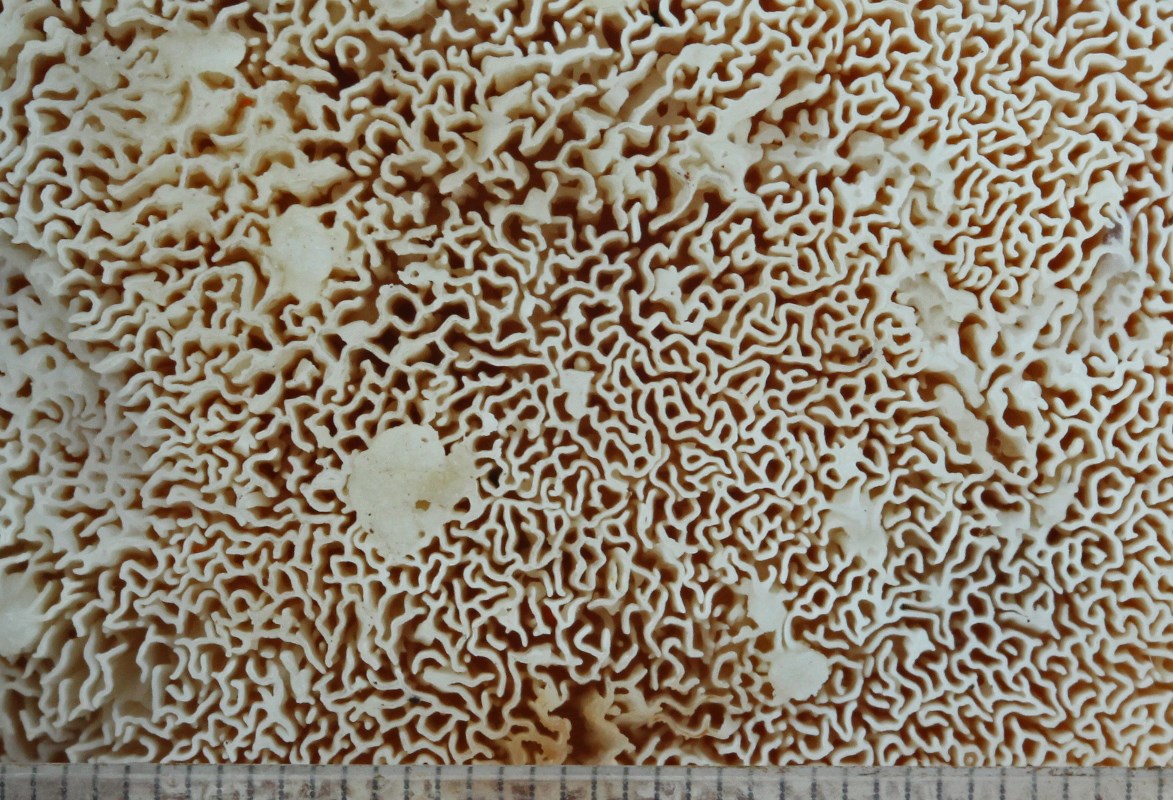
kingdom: Fungi
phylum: Basidiomycota
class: Agaricomycetes
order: Polyporales
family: Fomitopsidaceae
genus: Climacocystis
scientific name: Climacocystis borealis
